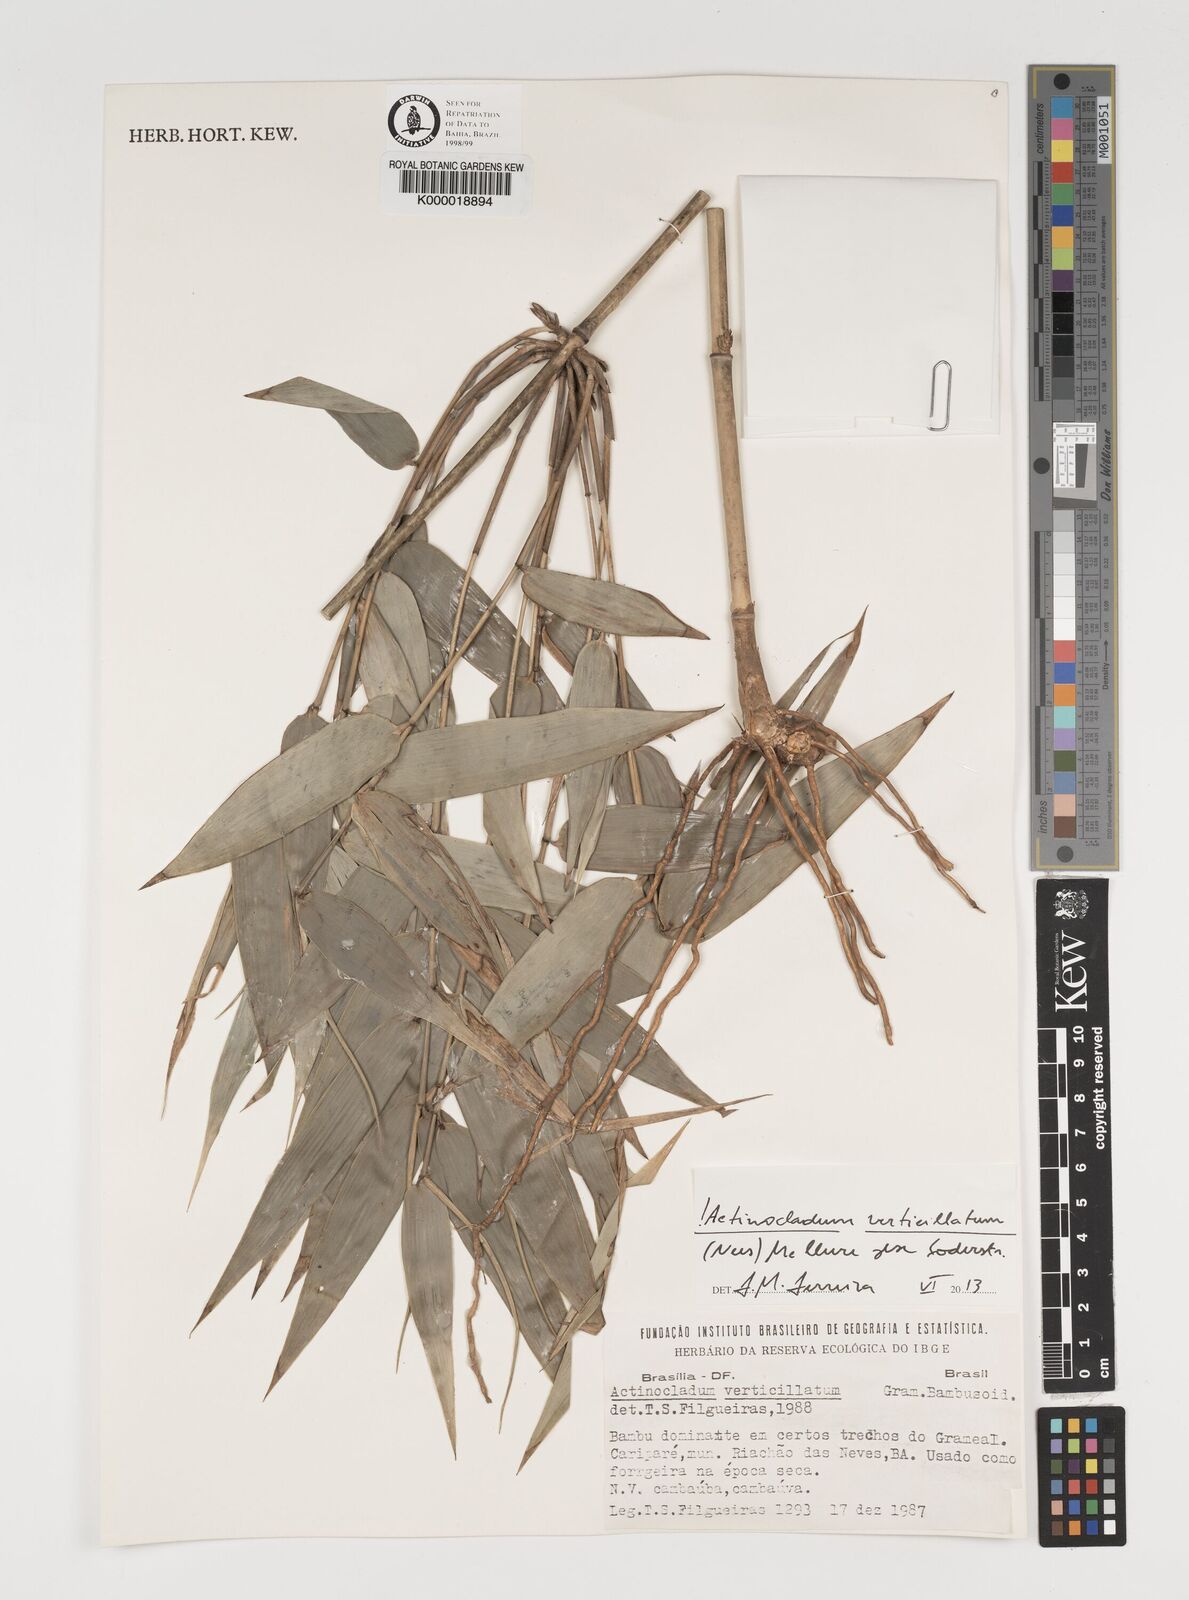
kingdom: Plantae
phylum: Tracheophyta
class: Liliopsida
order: Poales
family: Poaceae
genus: Actinocladum
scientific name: Actinocladum verticillatum
